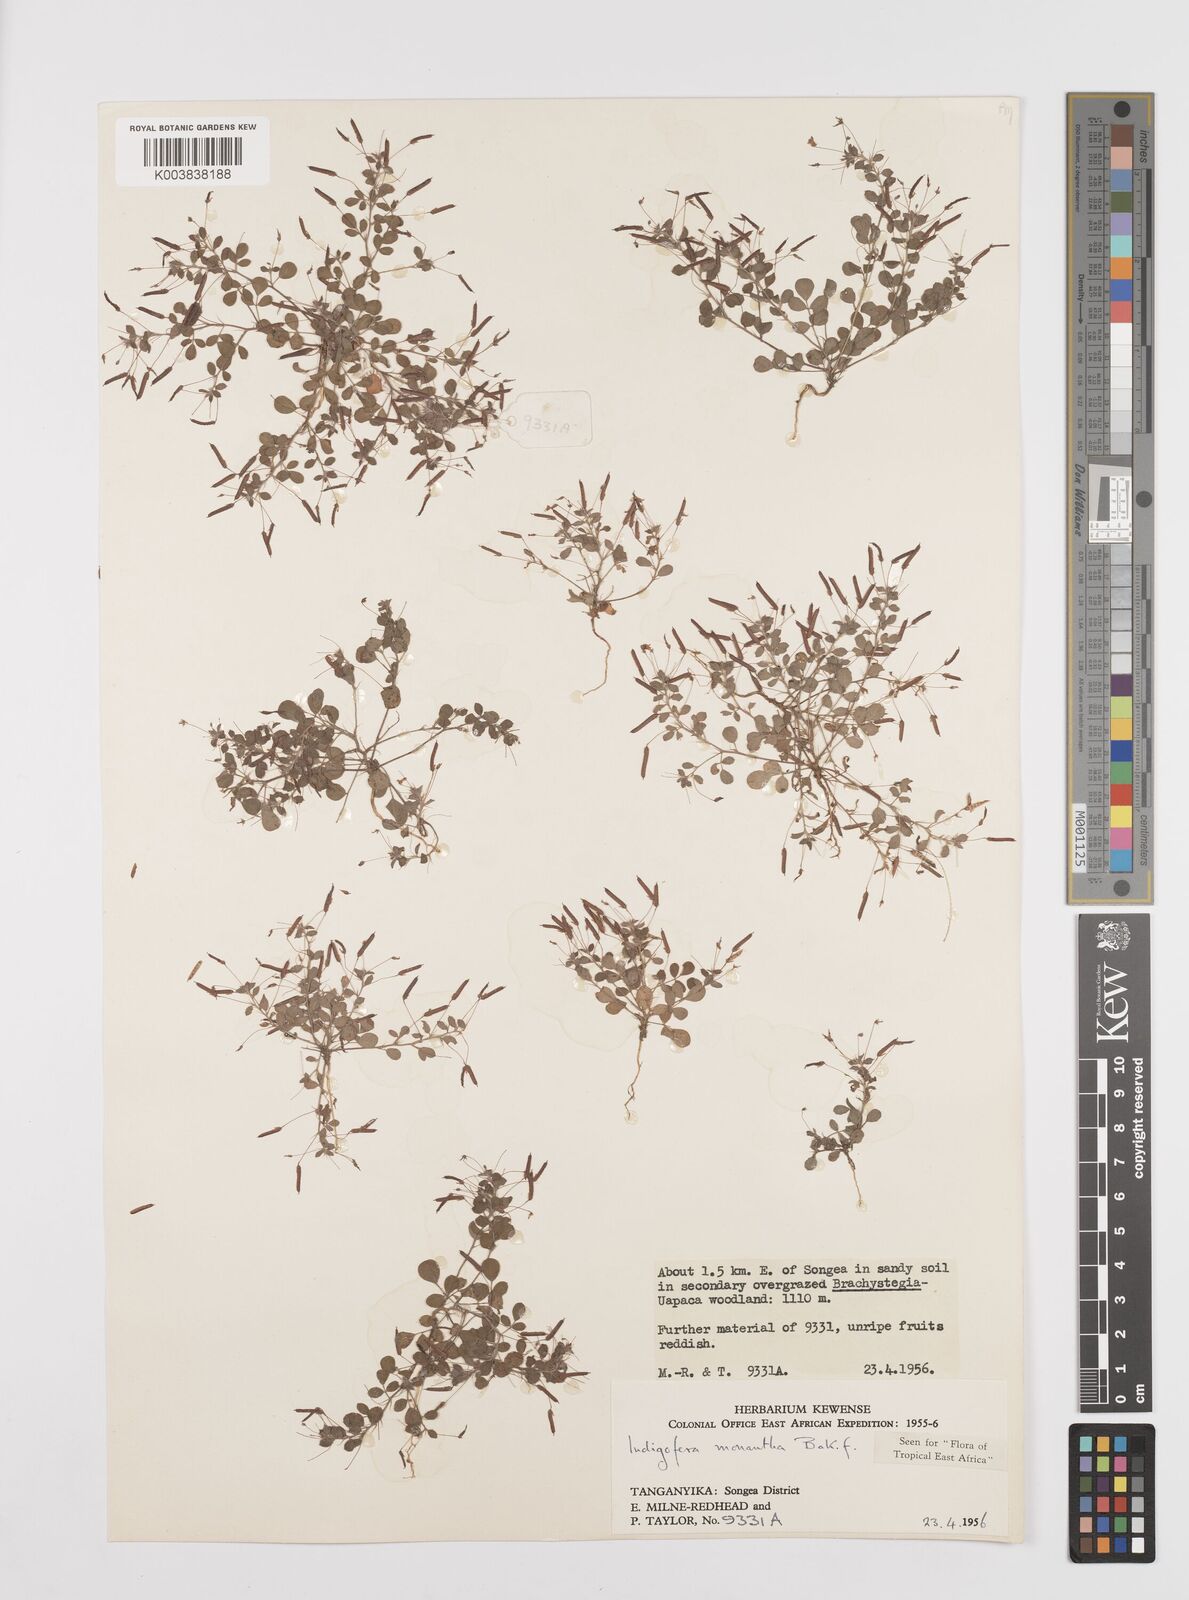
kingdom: Plantae
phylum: Tracheophyta
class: Magnoliopsida
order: Fabales
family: Fabaceae
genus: Indigofera
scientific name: Indigofera monantha
